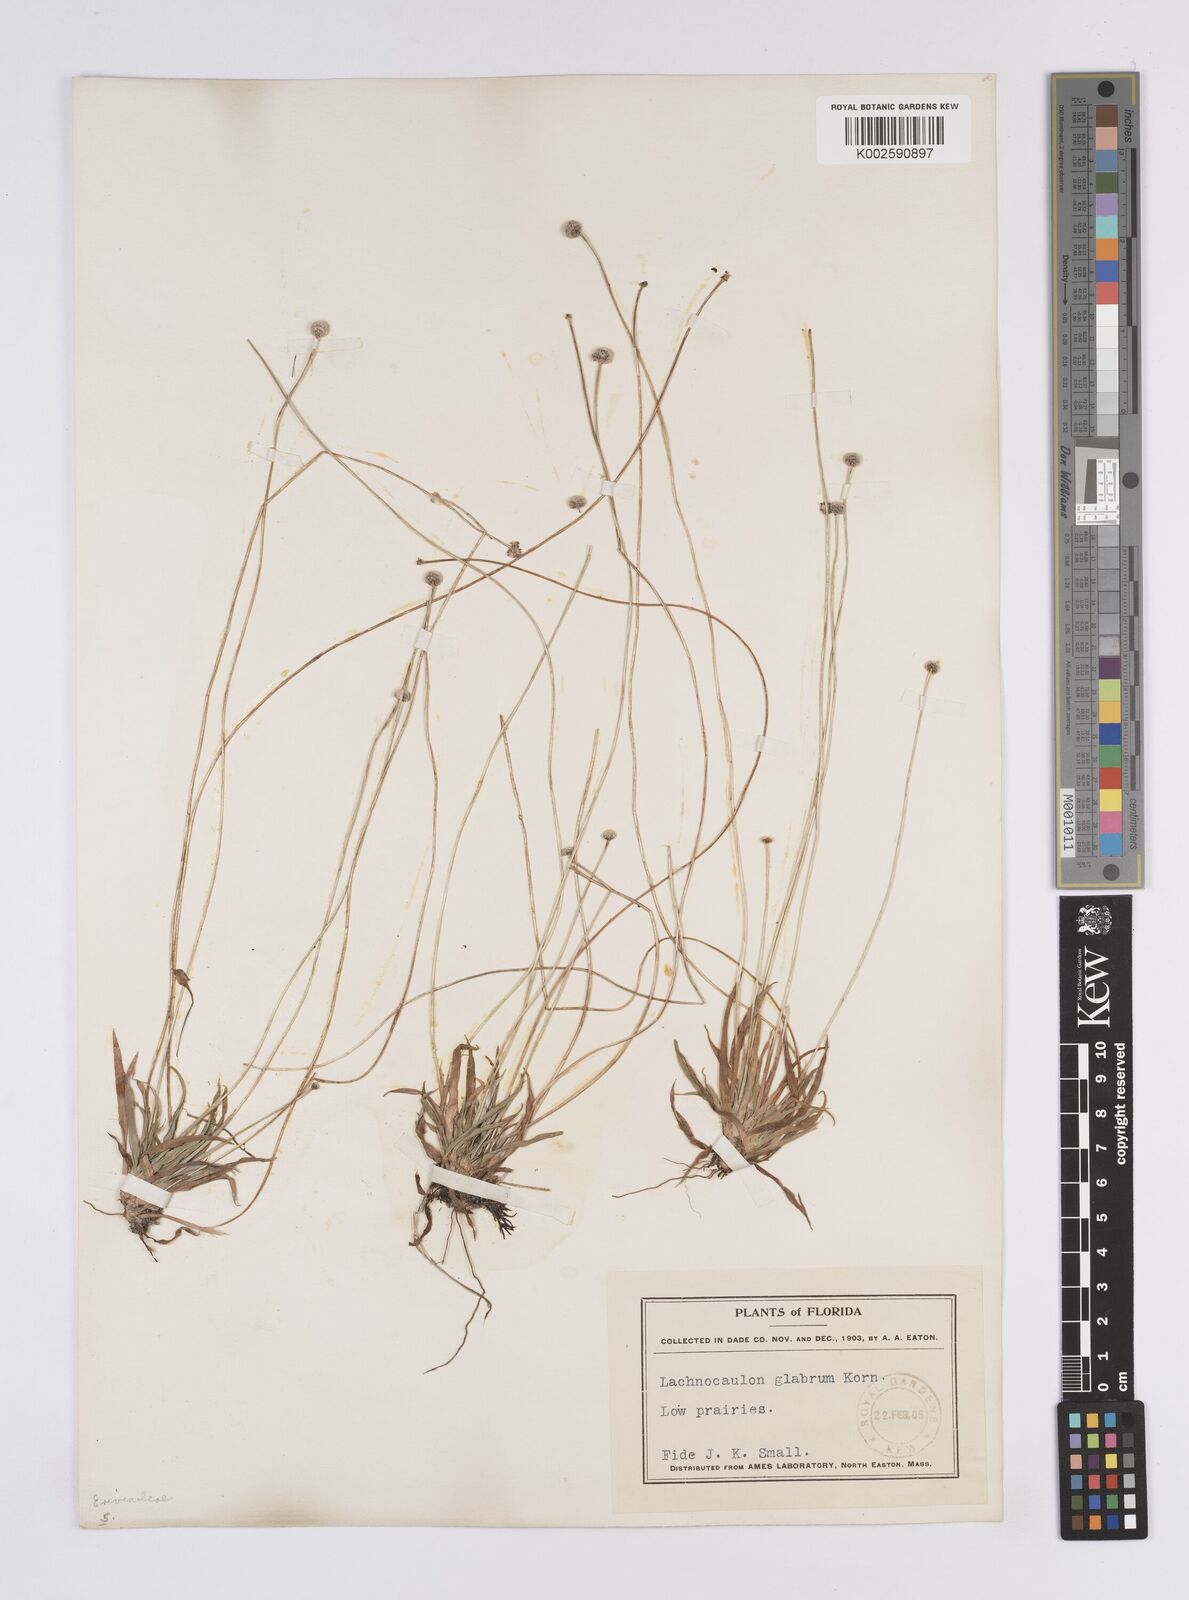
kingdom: Plantae
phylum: Tracheophyta
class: Liliopsida
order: Poales
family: Eriocaulaceae
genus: Paepalanthus
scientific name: Paepalanthus anceps
